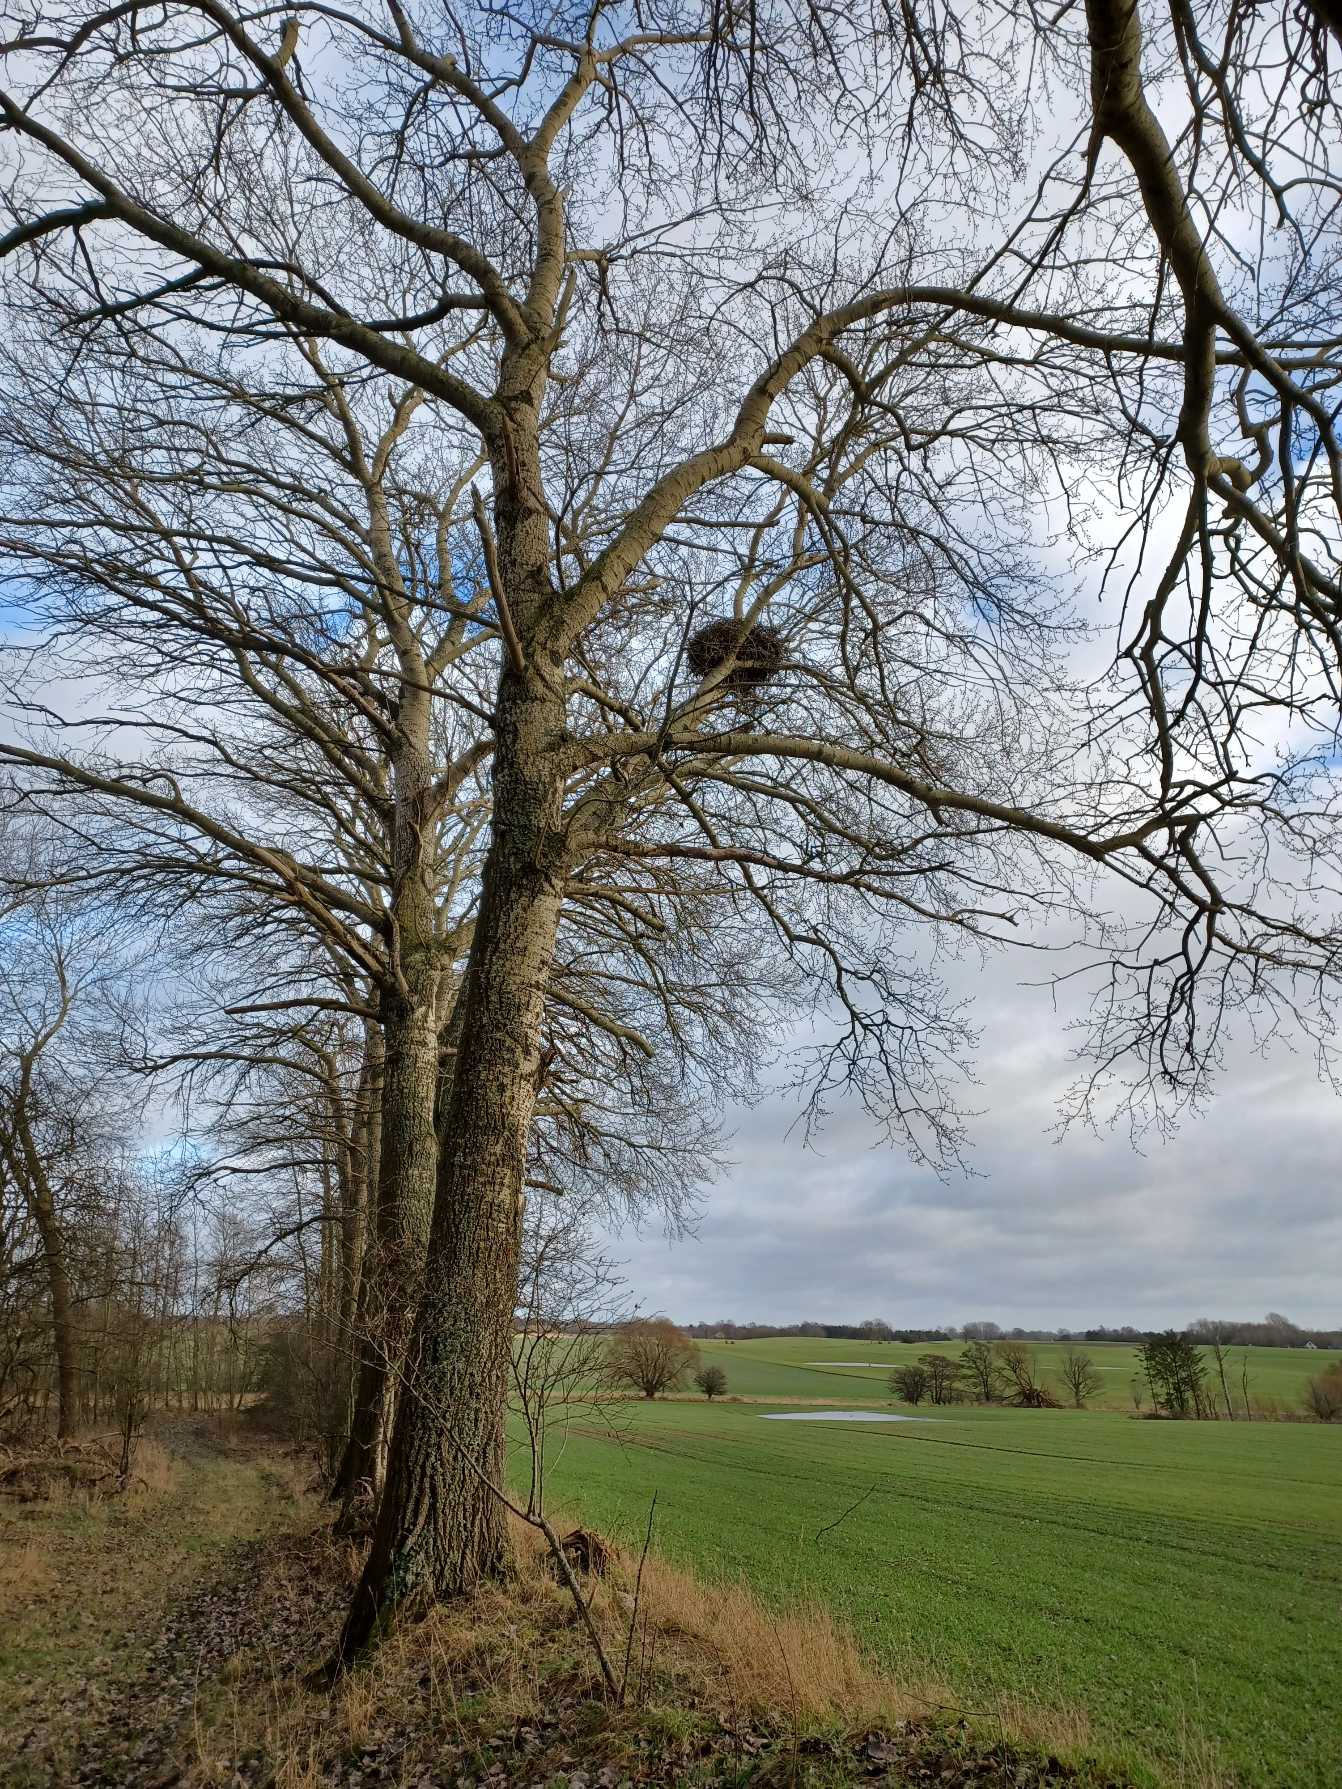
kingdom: Animalia
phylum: Chordata
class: Aves
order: Accipitriformes
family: Accipitridae
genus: Haliaeetus
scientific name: Haliaeetus albicilla
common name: Havørn
